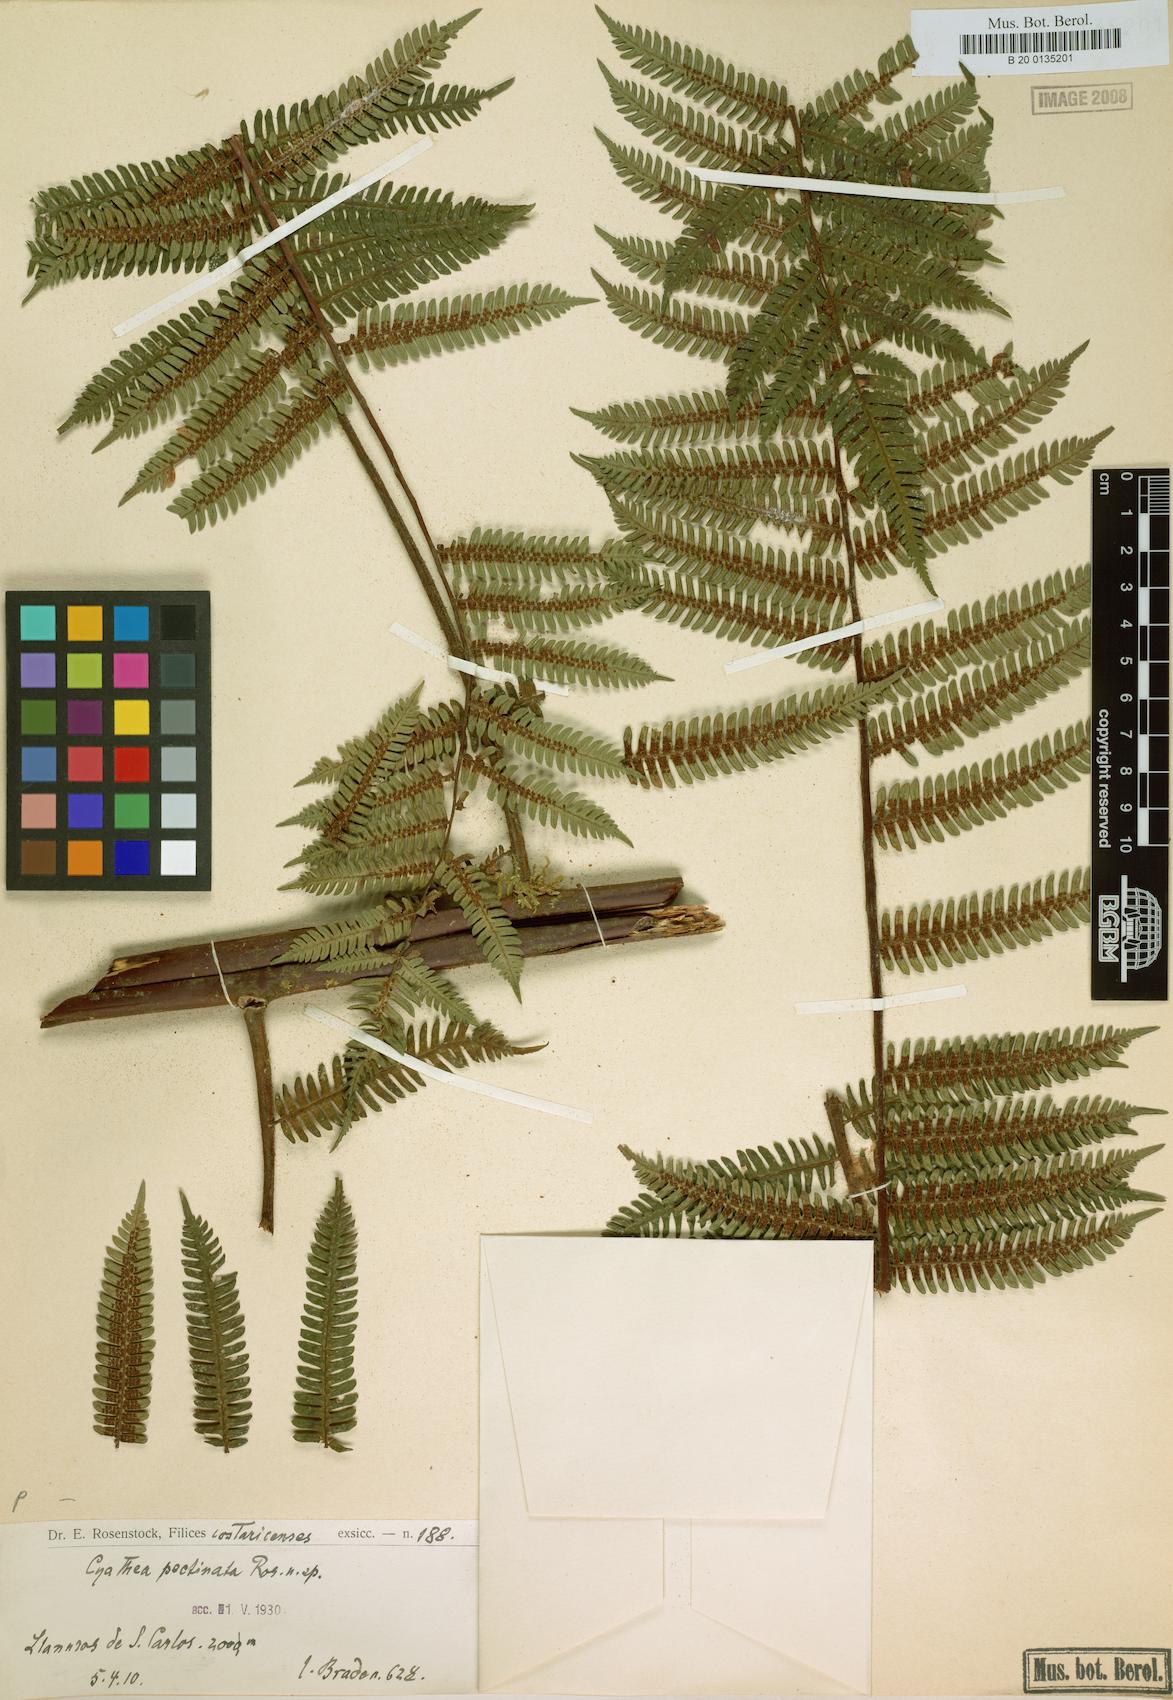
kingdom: Plantae
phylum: Tracheophyta
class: Polypodiopsida
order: Cyatheales
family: Cyatheaceae
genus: Gymnosphaera
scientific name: Gymnosphaera henryi
